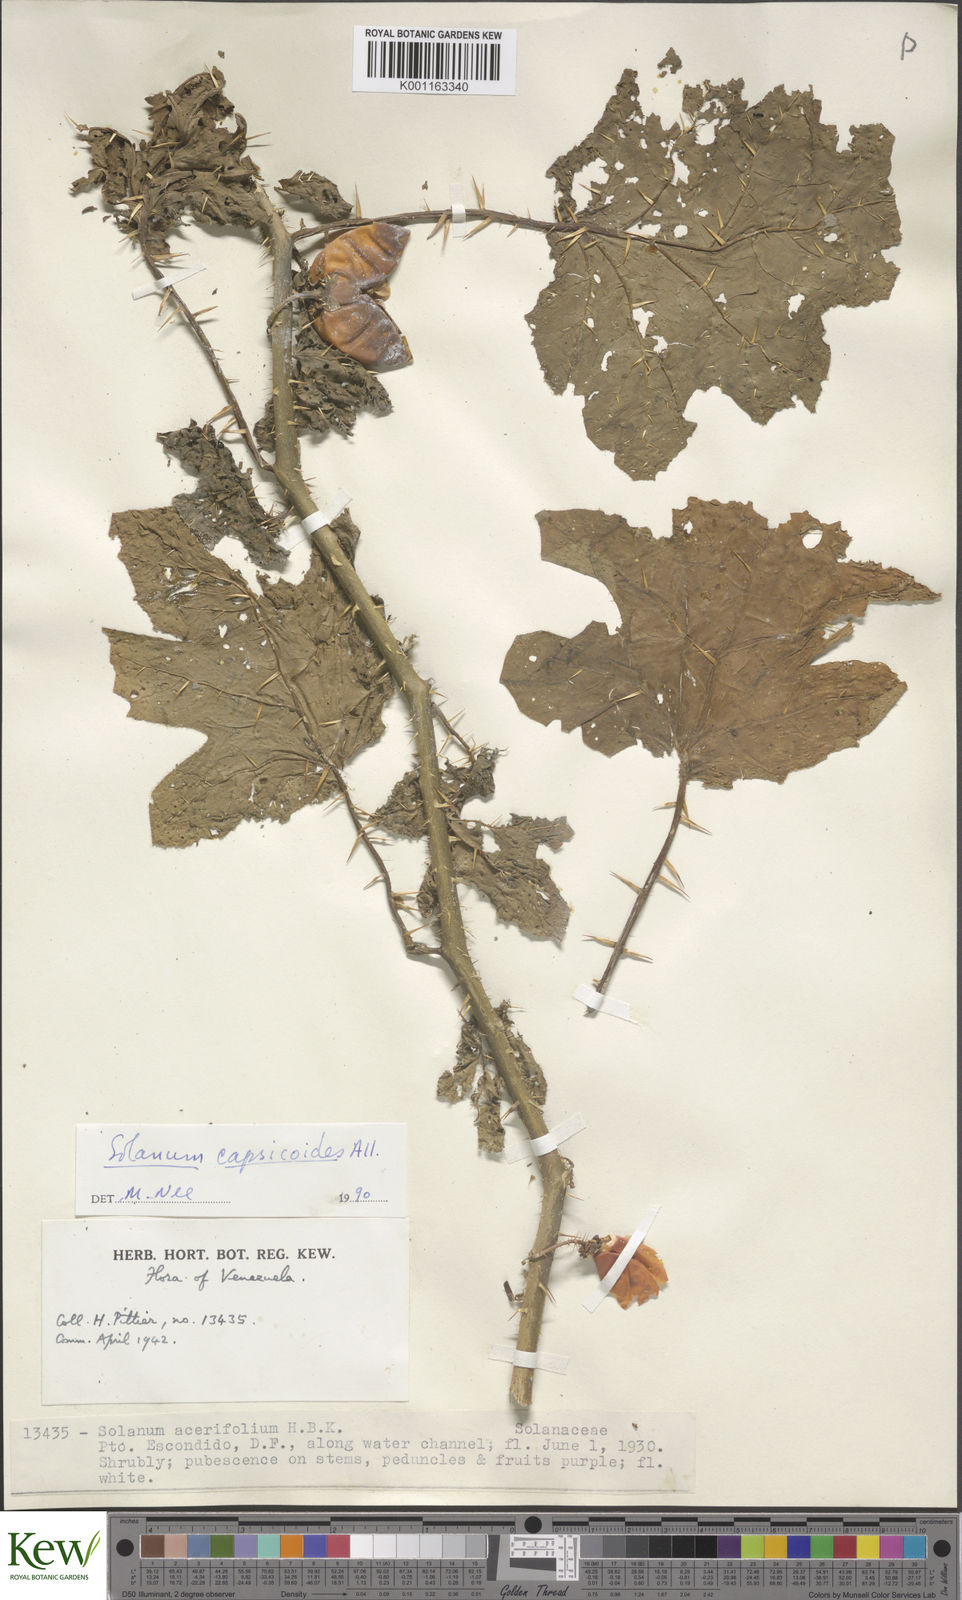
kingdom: Plantae
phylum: Tracheophyta
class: Magnoliopsida
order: Solanales
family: Solanaceae
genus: Solanum
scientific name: Solanum capsicoides
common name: Cockroach berry
